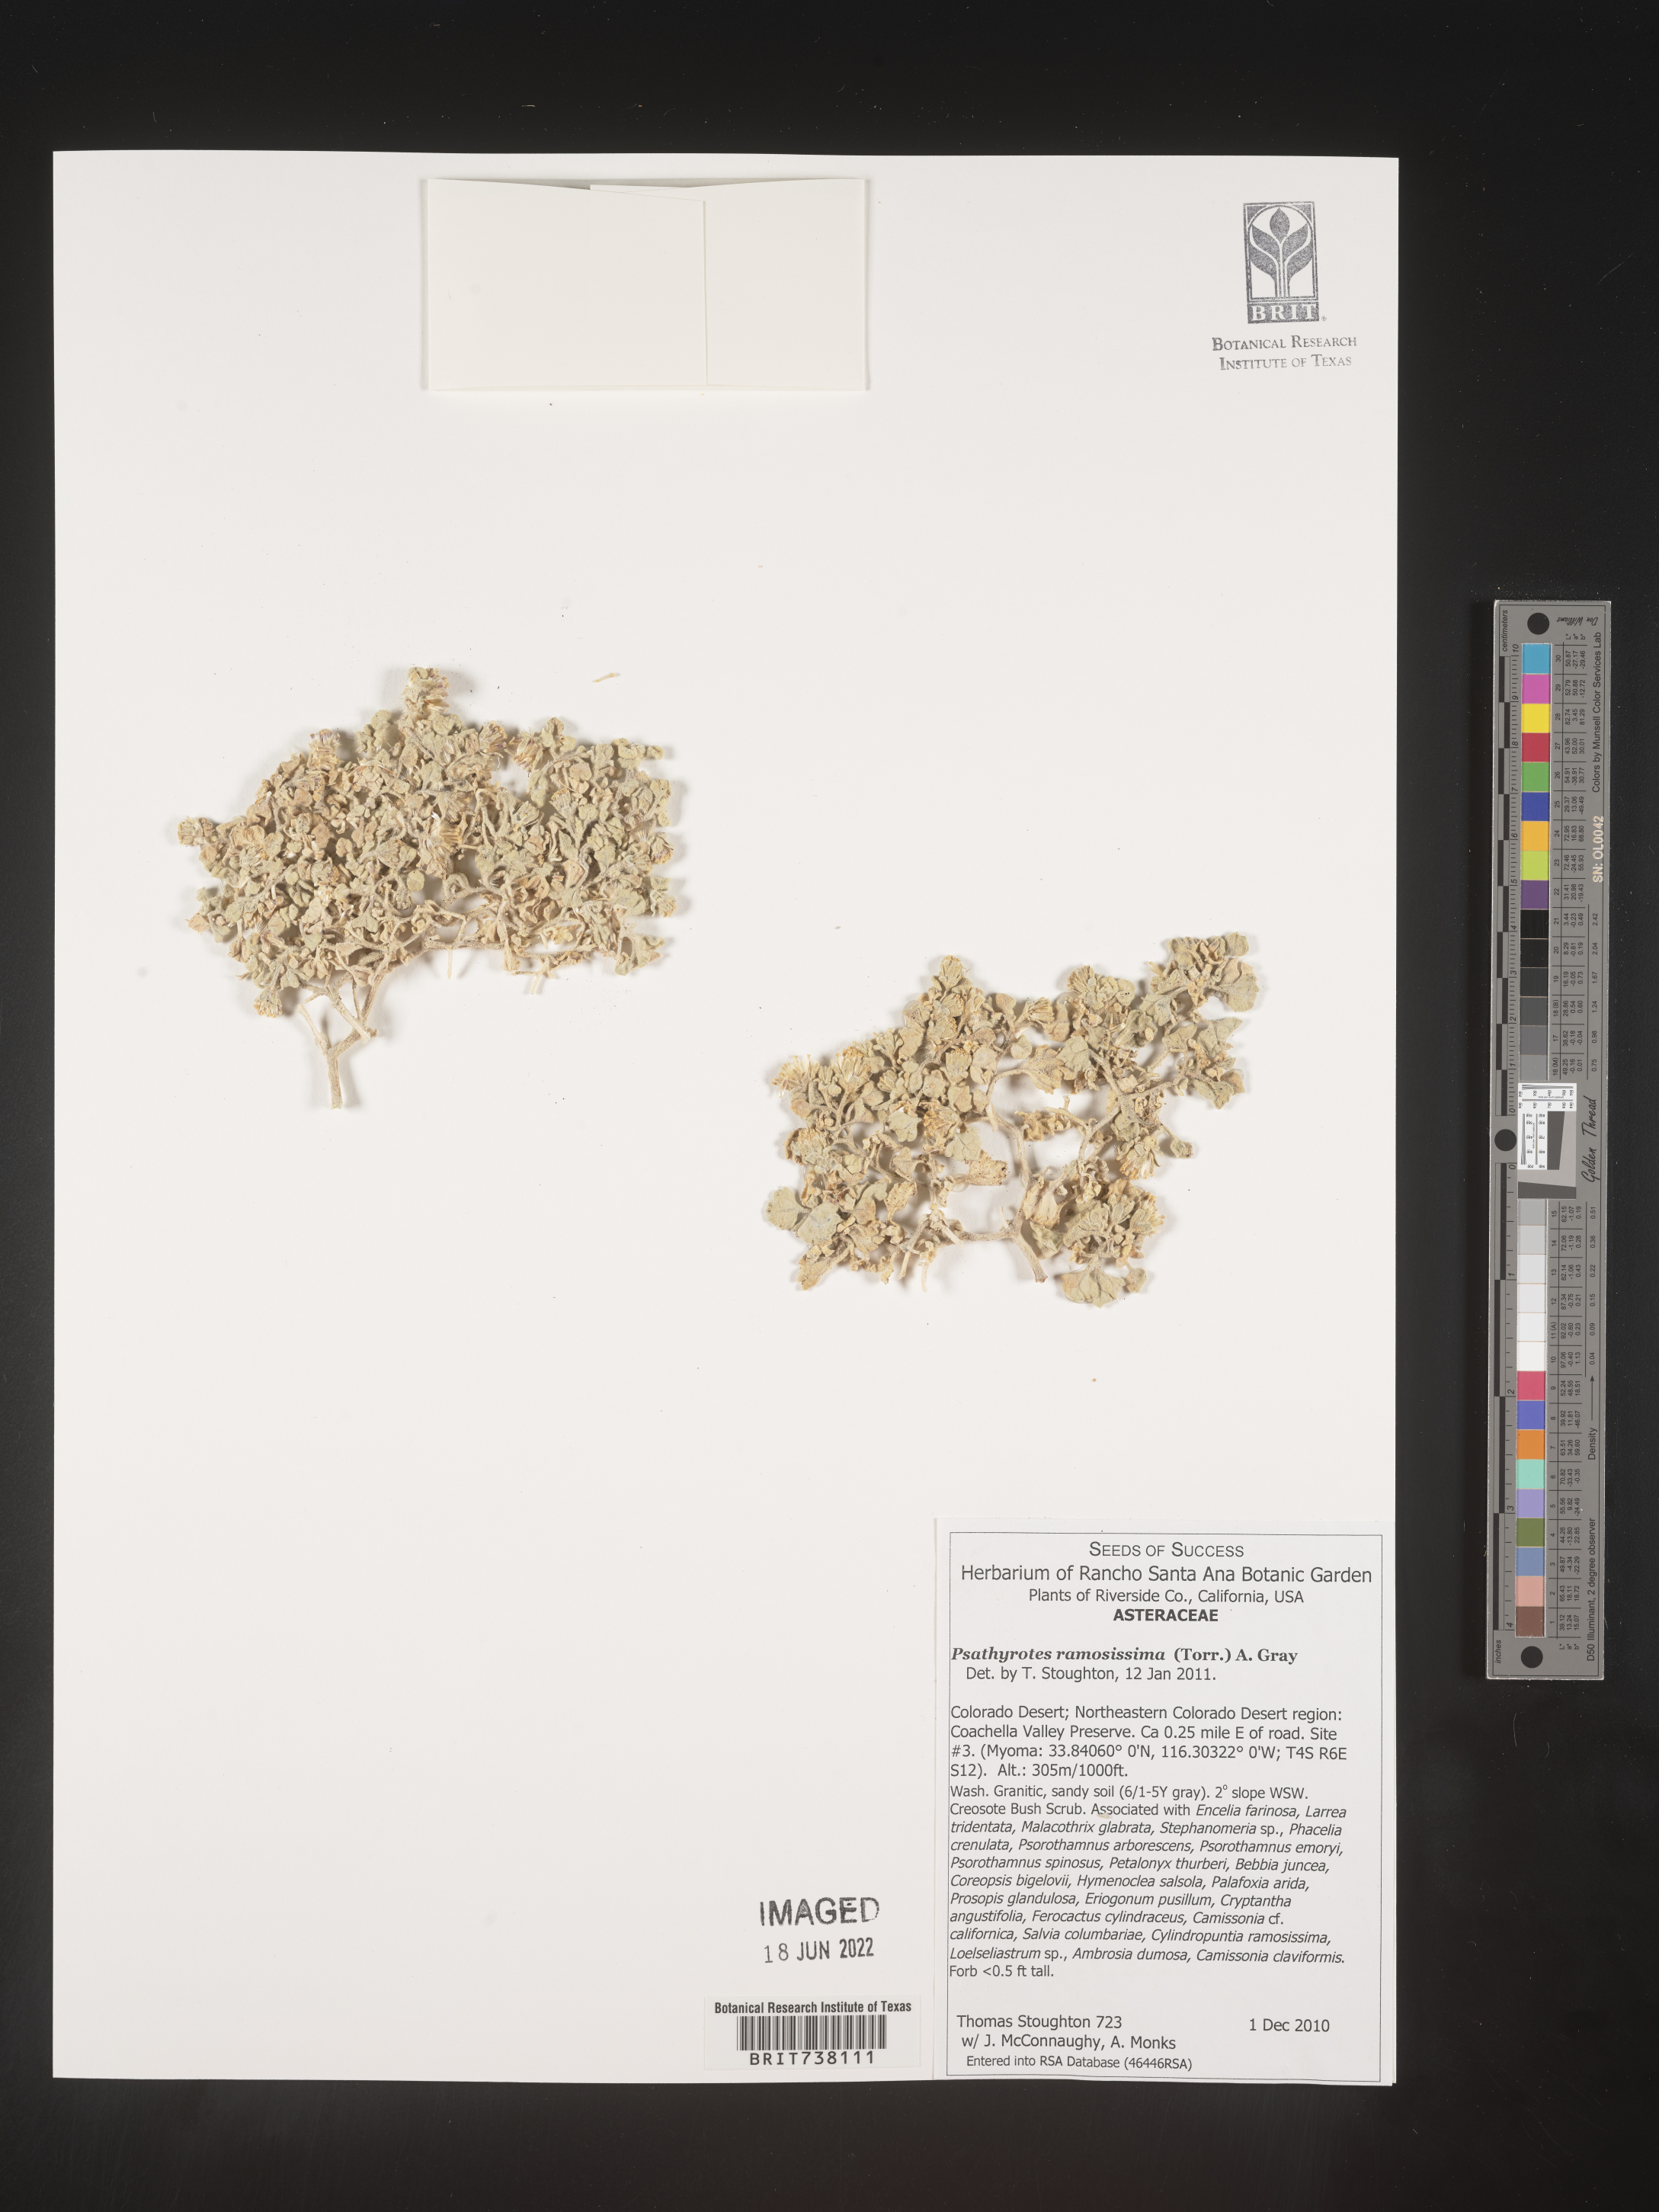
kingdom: Plantae
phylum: Tracheophyta
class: Magnoliopsida
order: Asterales
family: Asteraceae
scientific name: Asteraceae
